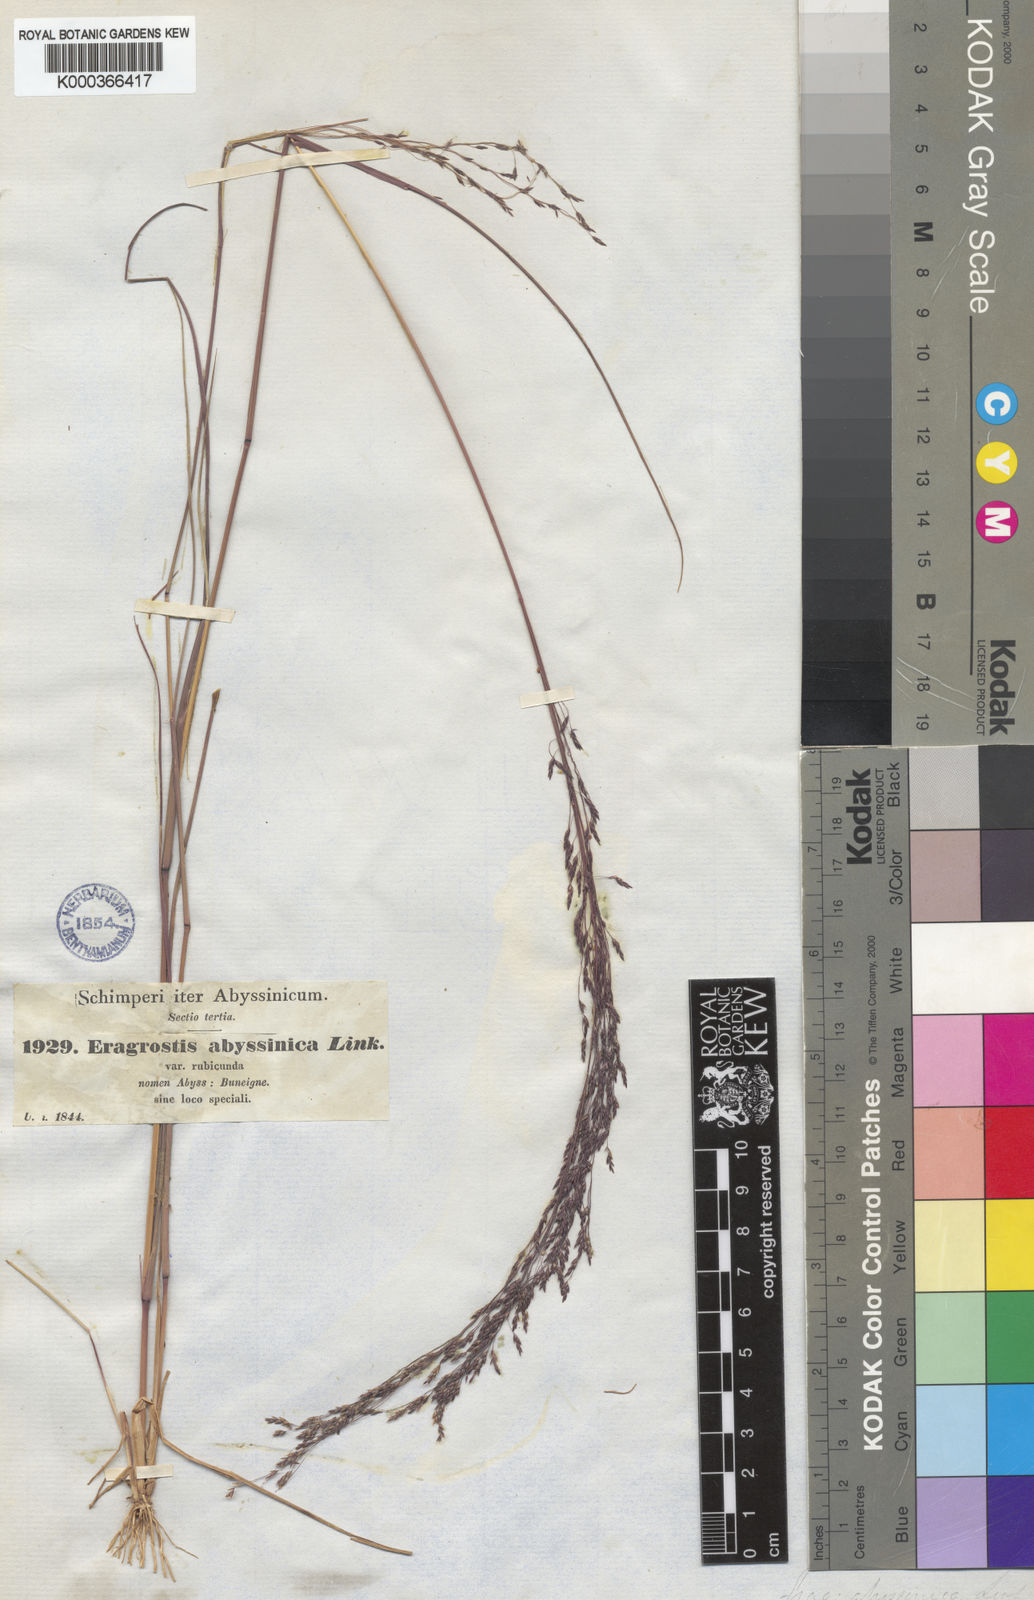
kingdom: Plantae
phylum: Tracheophyta
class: Liliopsida
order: Poales
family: Poaceae
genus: Eragrostis
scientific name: Eragrostis tef
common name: Teff
